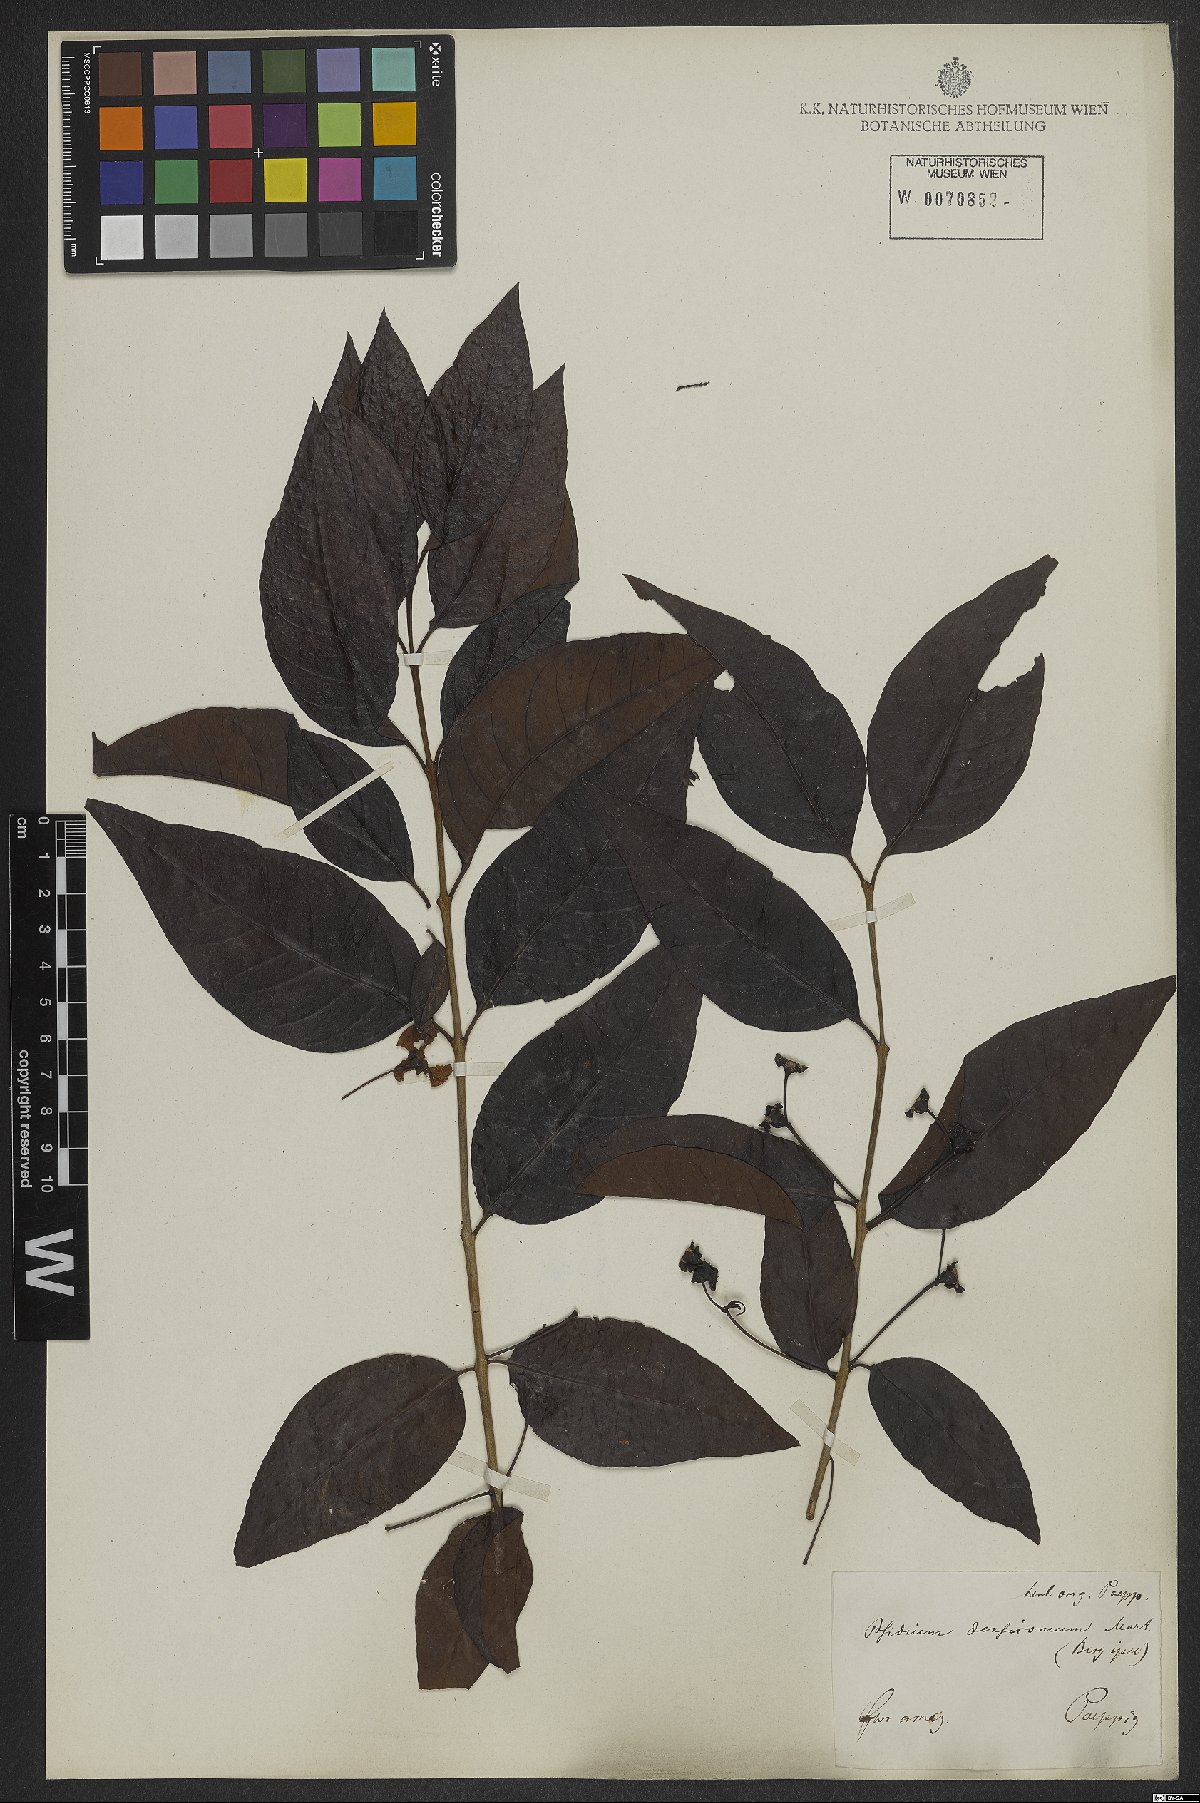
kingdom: Plantae
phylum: Tracheophyta
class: Magnoliopsida
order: Myrtales
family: Myrtaceae
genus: Psidium
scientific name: Psidium densicomum
